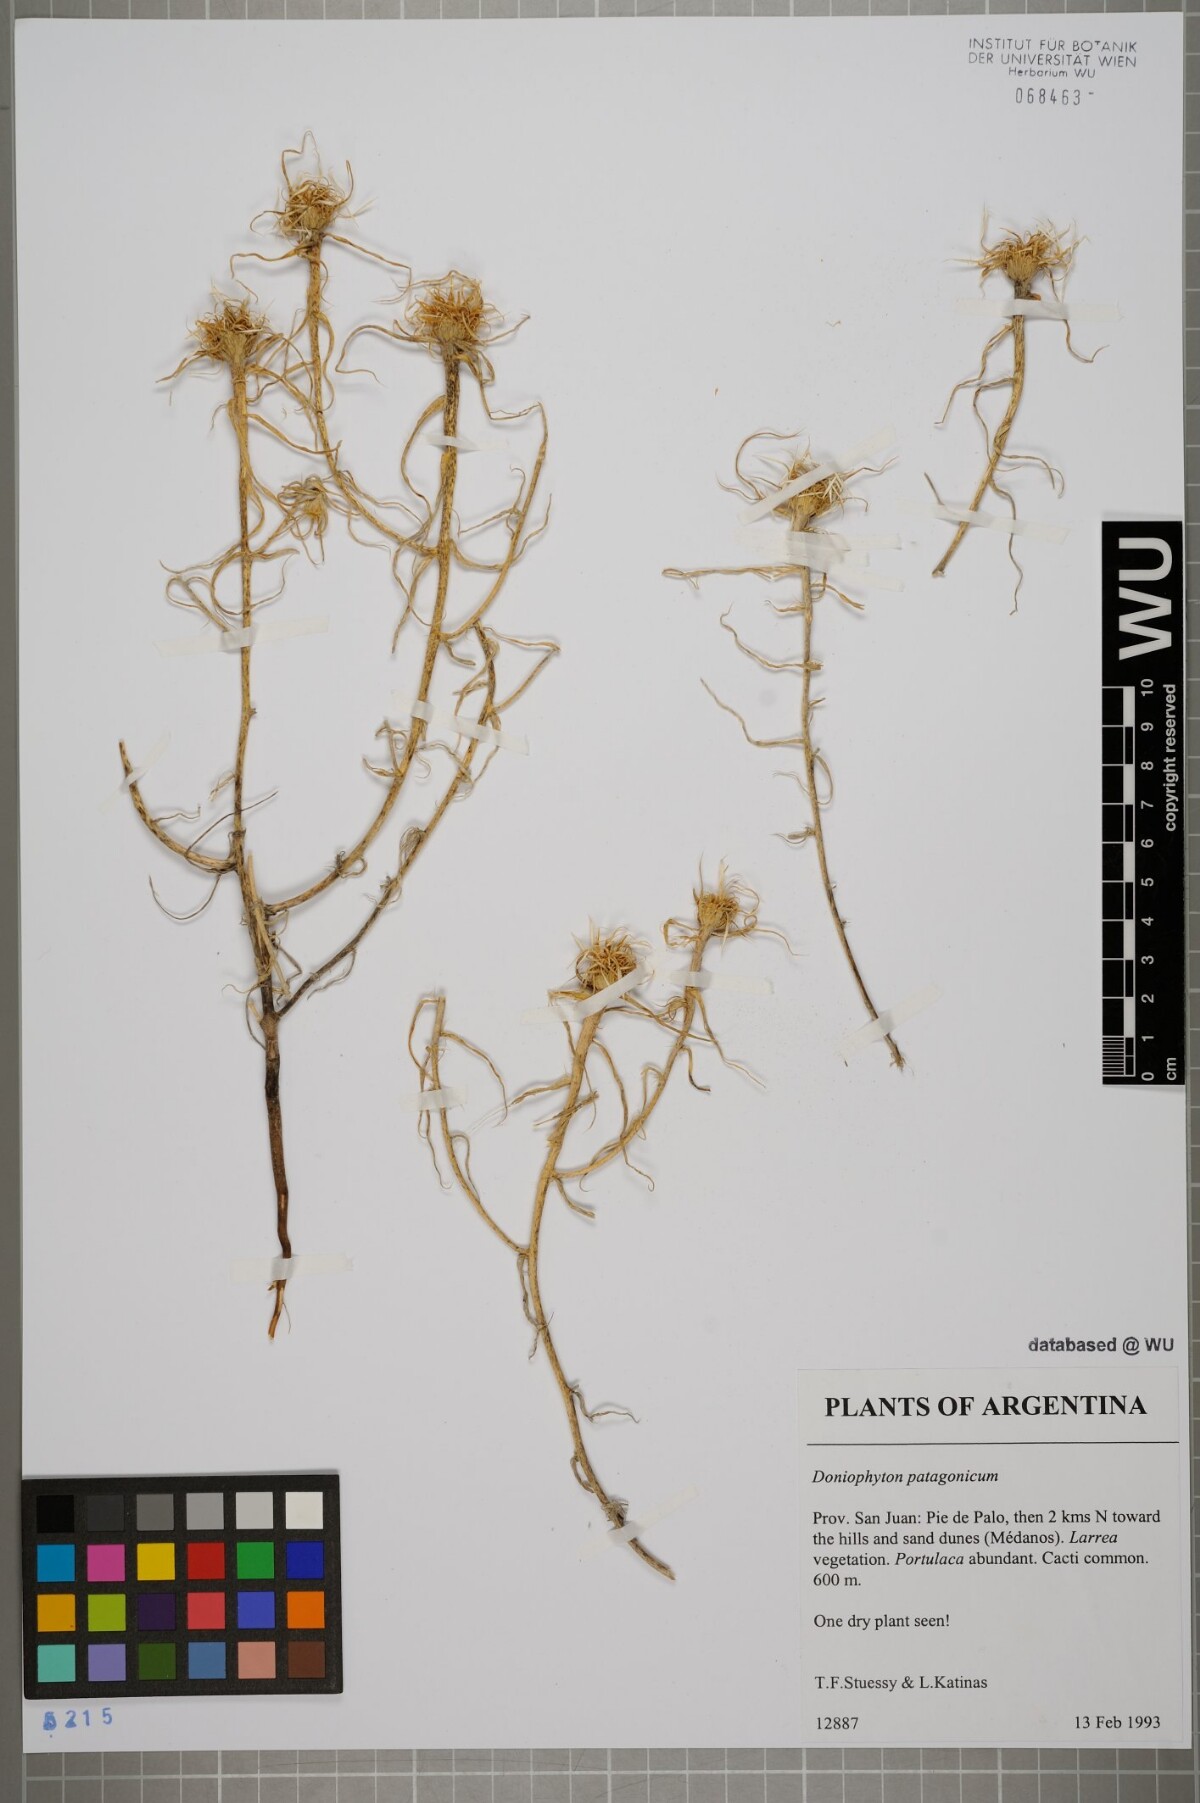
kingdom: Plantae
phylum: Tracheophyta
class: Magnoliopsida
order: Asterales
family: Asteraceae
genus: Doniophyton
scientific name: Doniophyton anomalum
